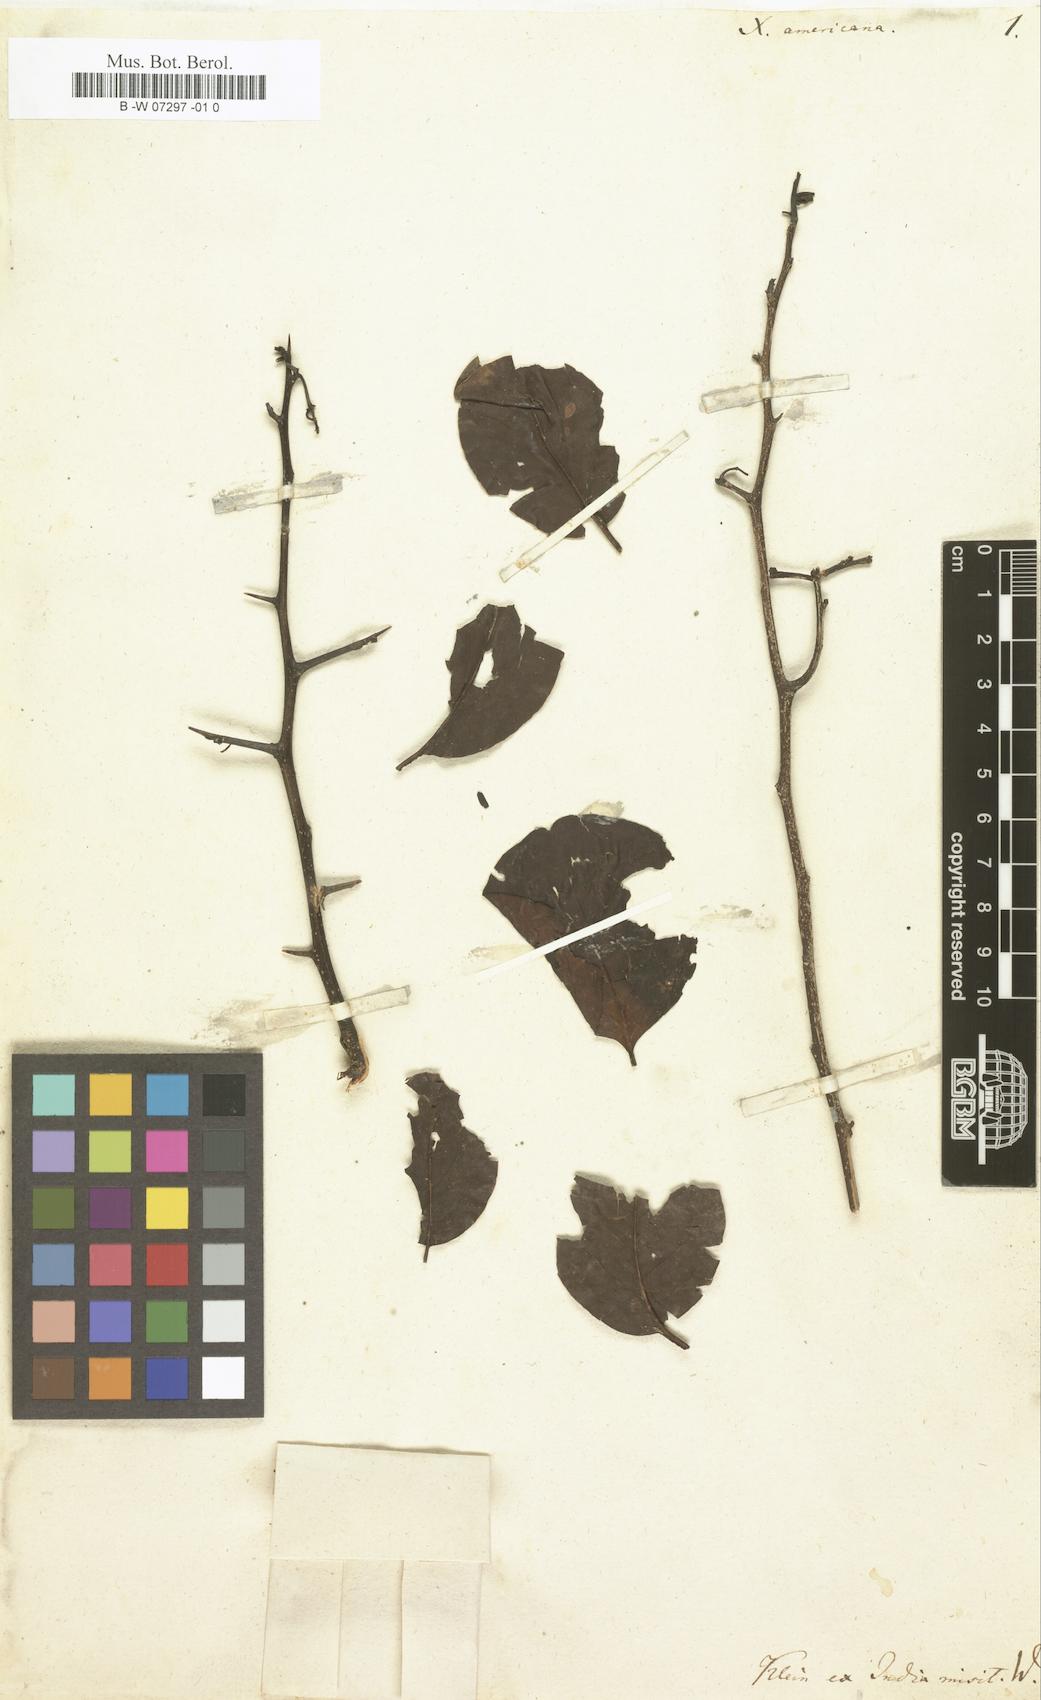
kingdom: Plantae
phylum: Tracheophyta
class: Magnoliopsida
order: Santalales
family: Ximeniaceae
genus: Ximenia
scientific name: Ximenia americana
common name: Tallowwood
